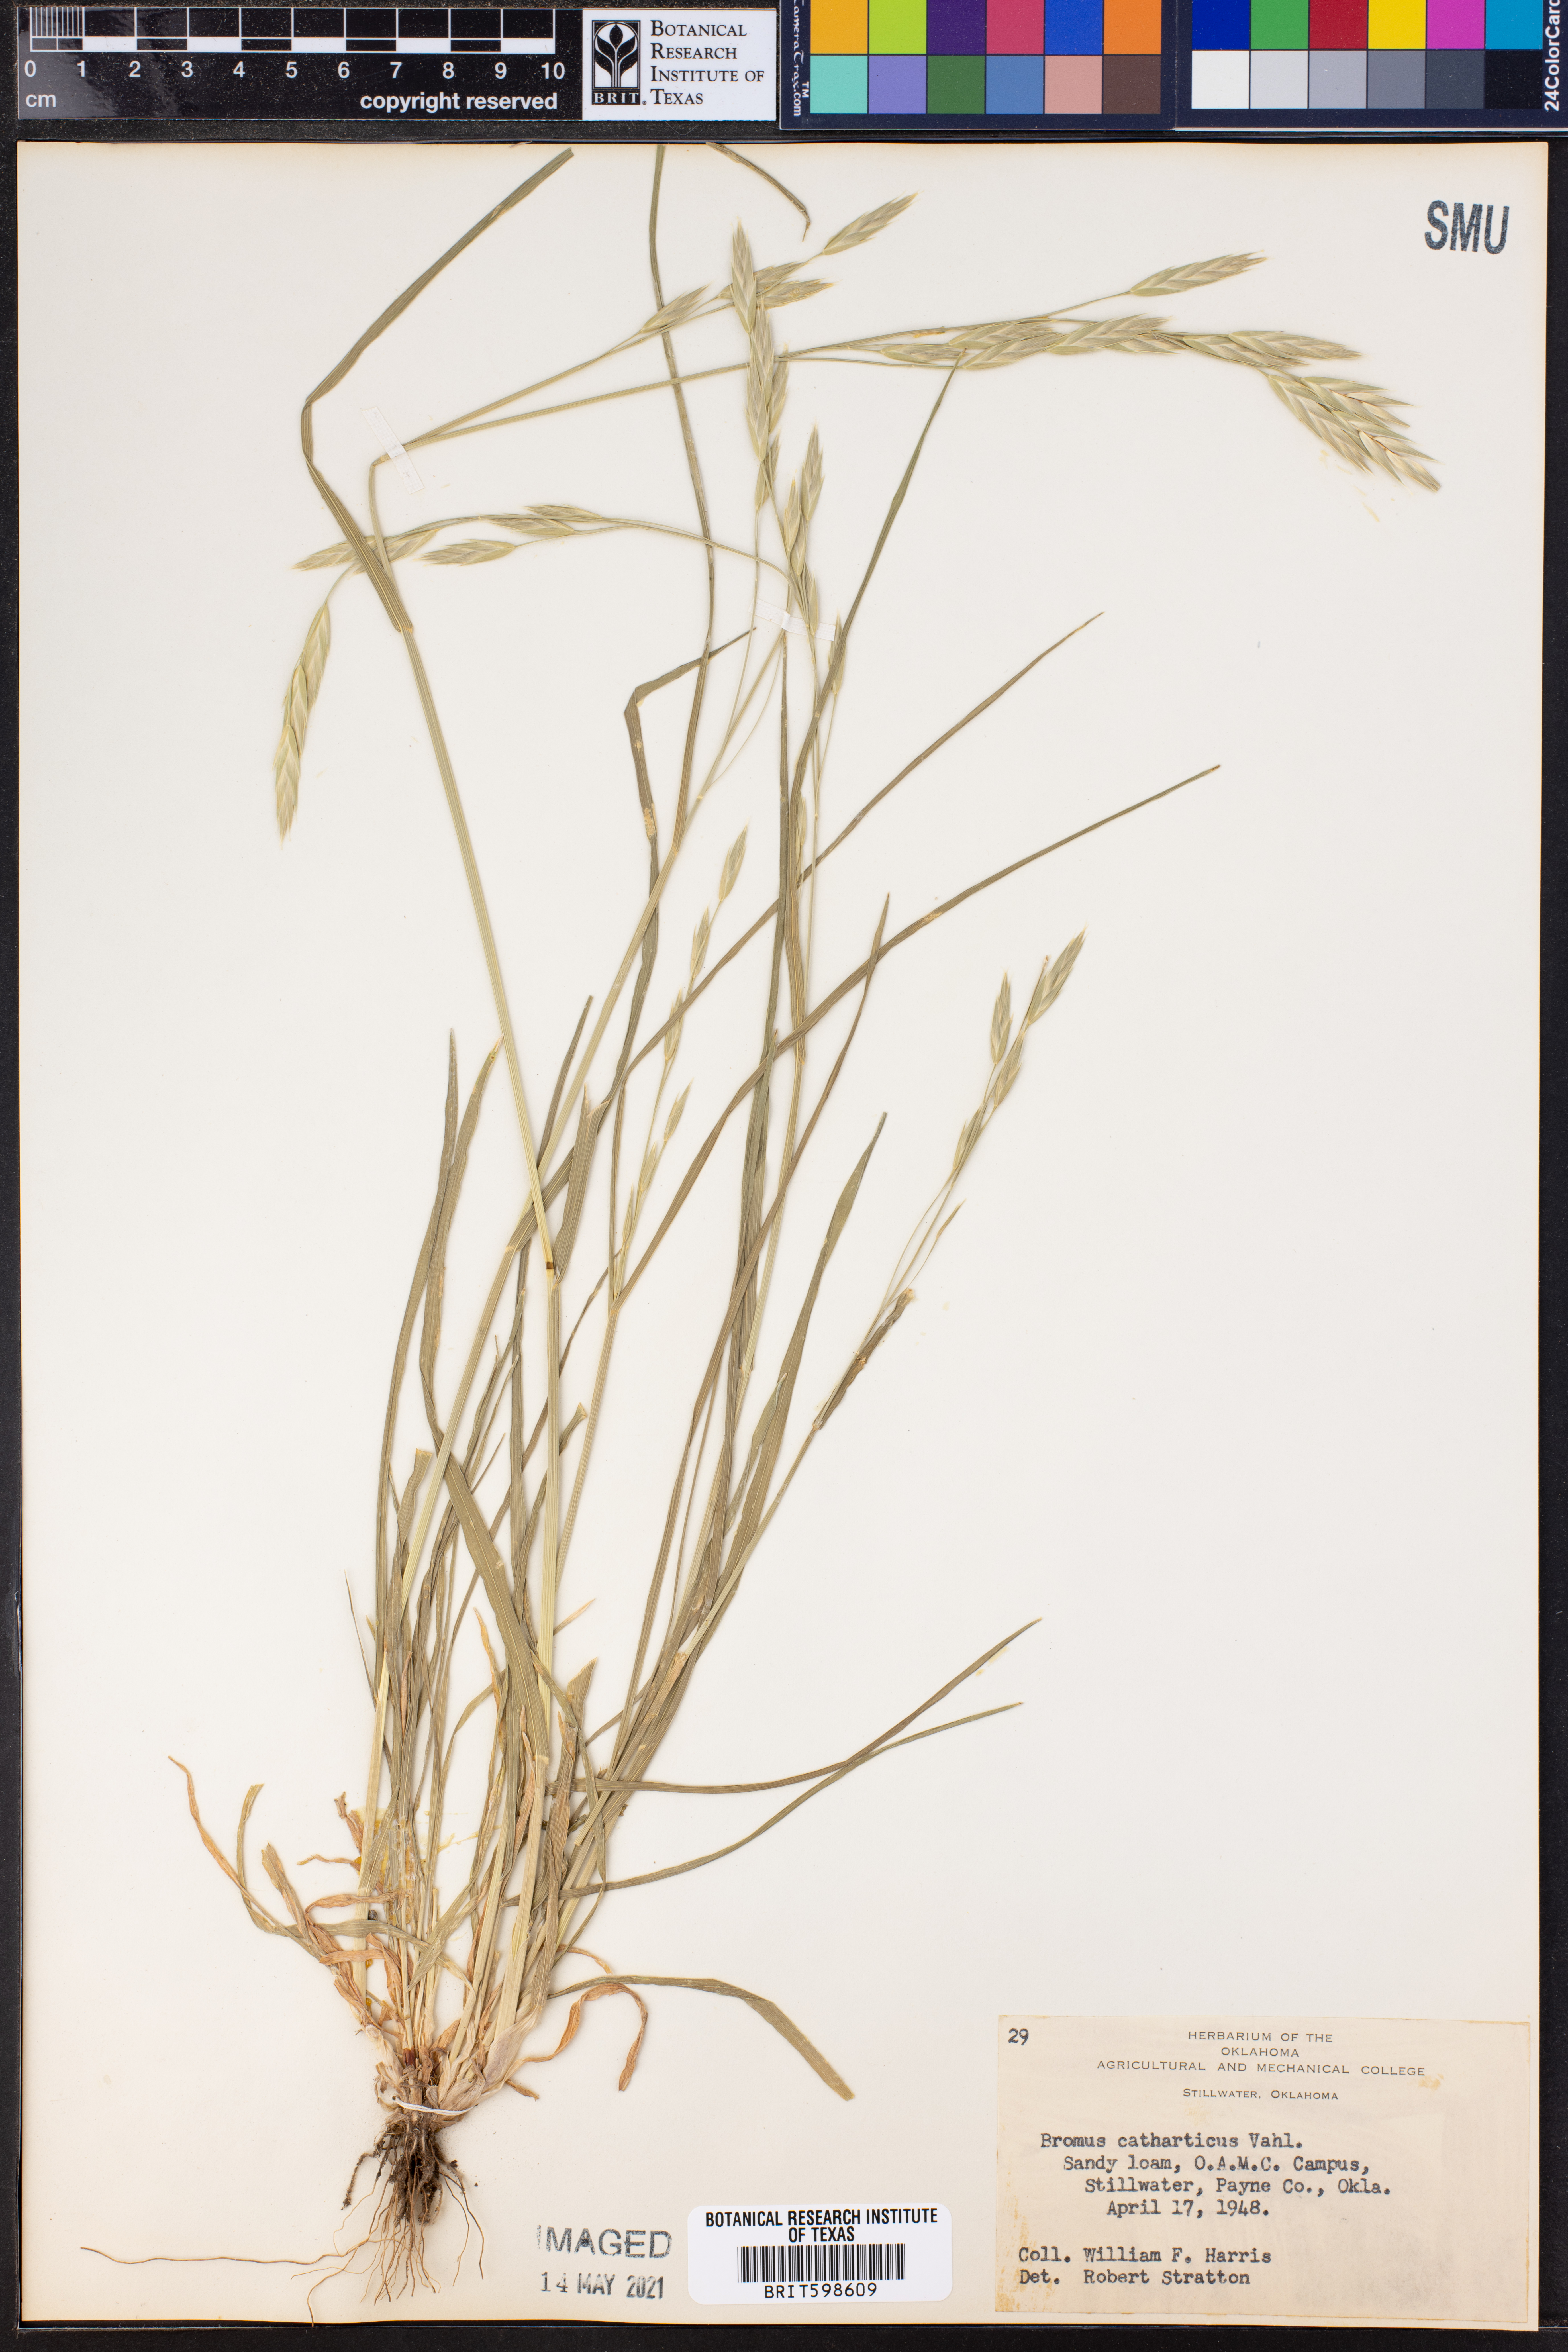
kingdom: Plantae
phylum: Tracheophyta
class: Liliopsida
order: Poales
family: Poaceae
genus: Bromus
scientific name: Bromus catharticus
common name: Rescuegrass
